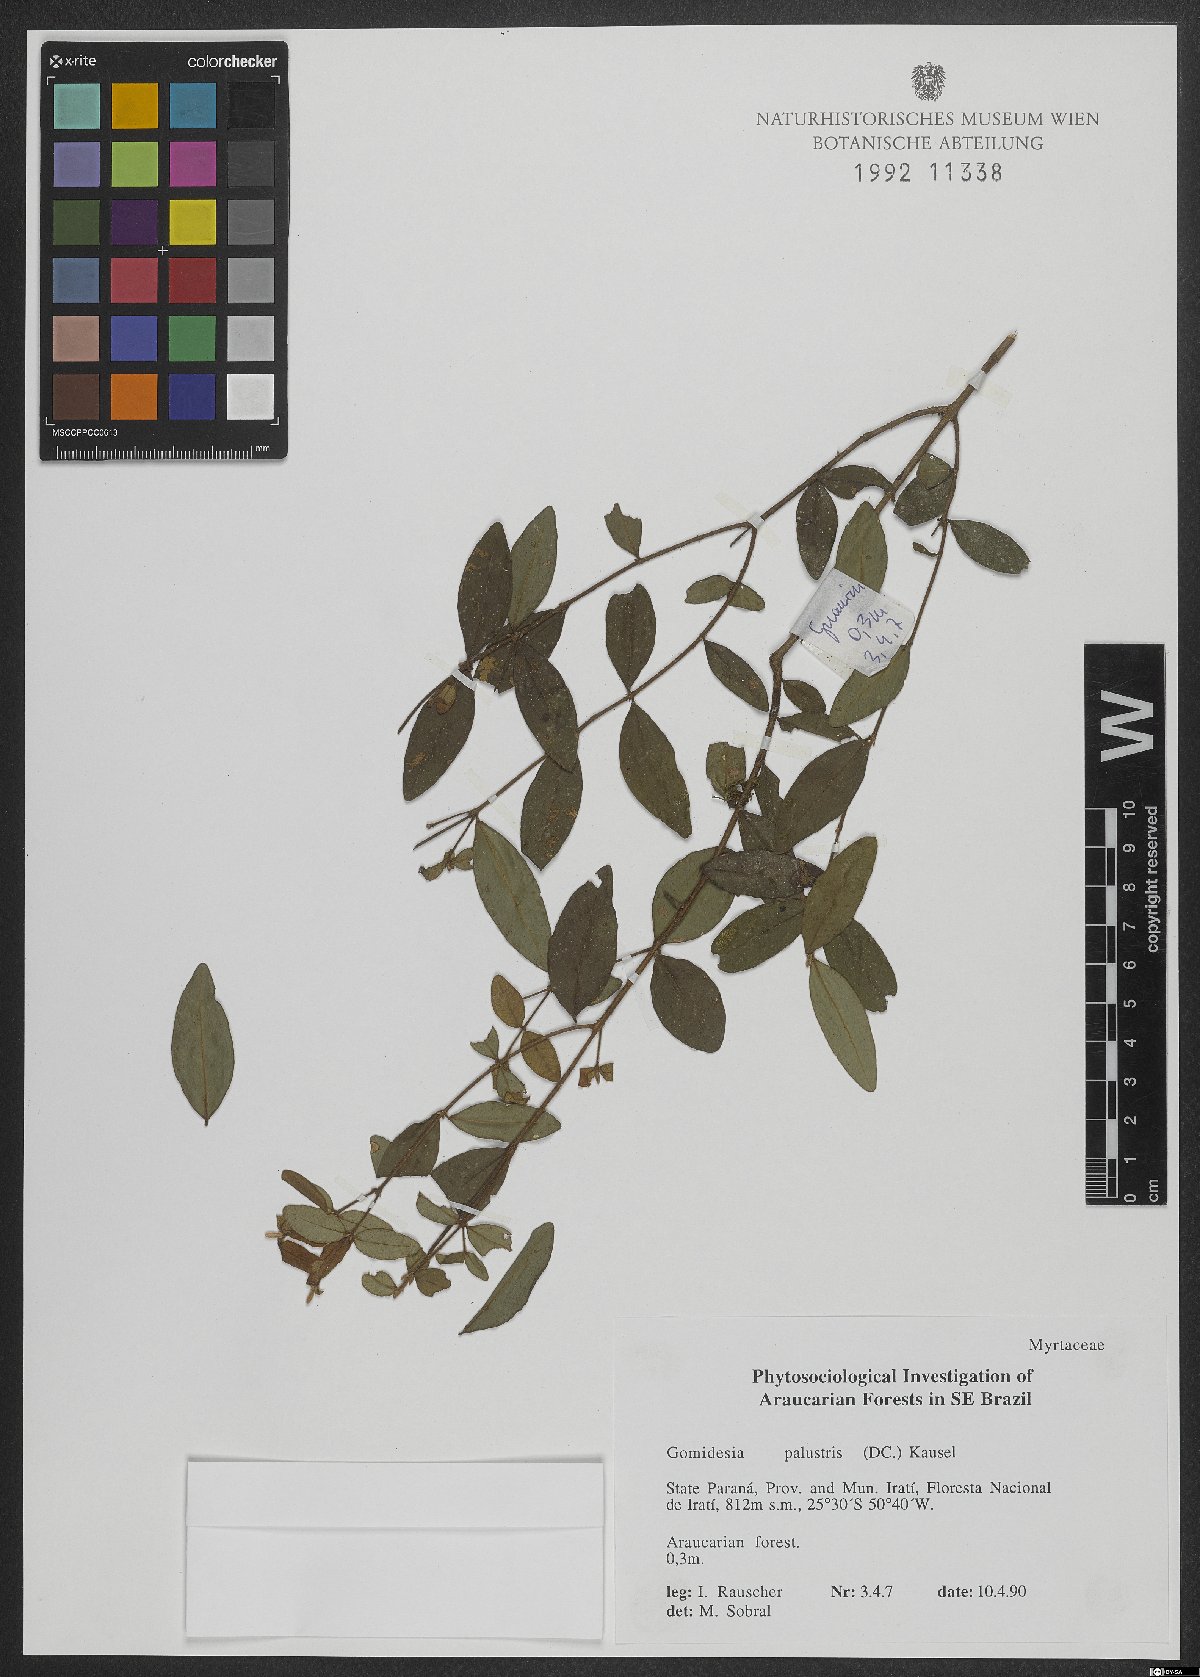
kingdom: Plantae
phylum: Tracheophyta
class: Magnoliopsida
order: Myrtales
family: Myrtaceae
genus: Myrcia
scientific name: Myrcia palustris
